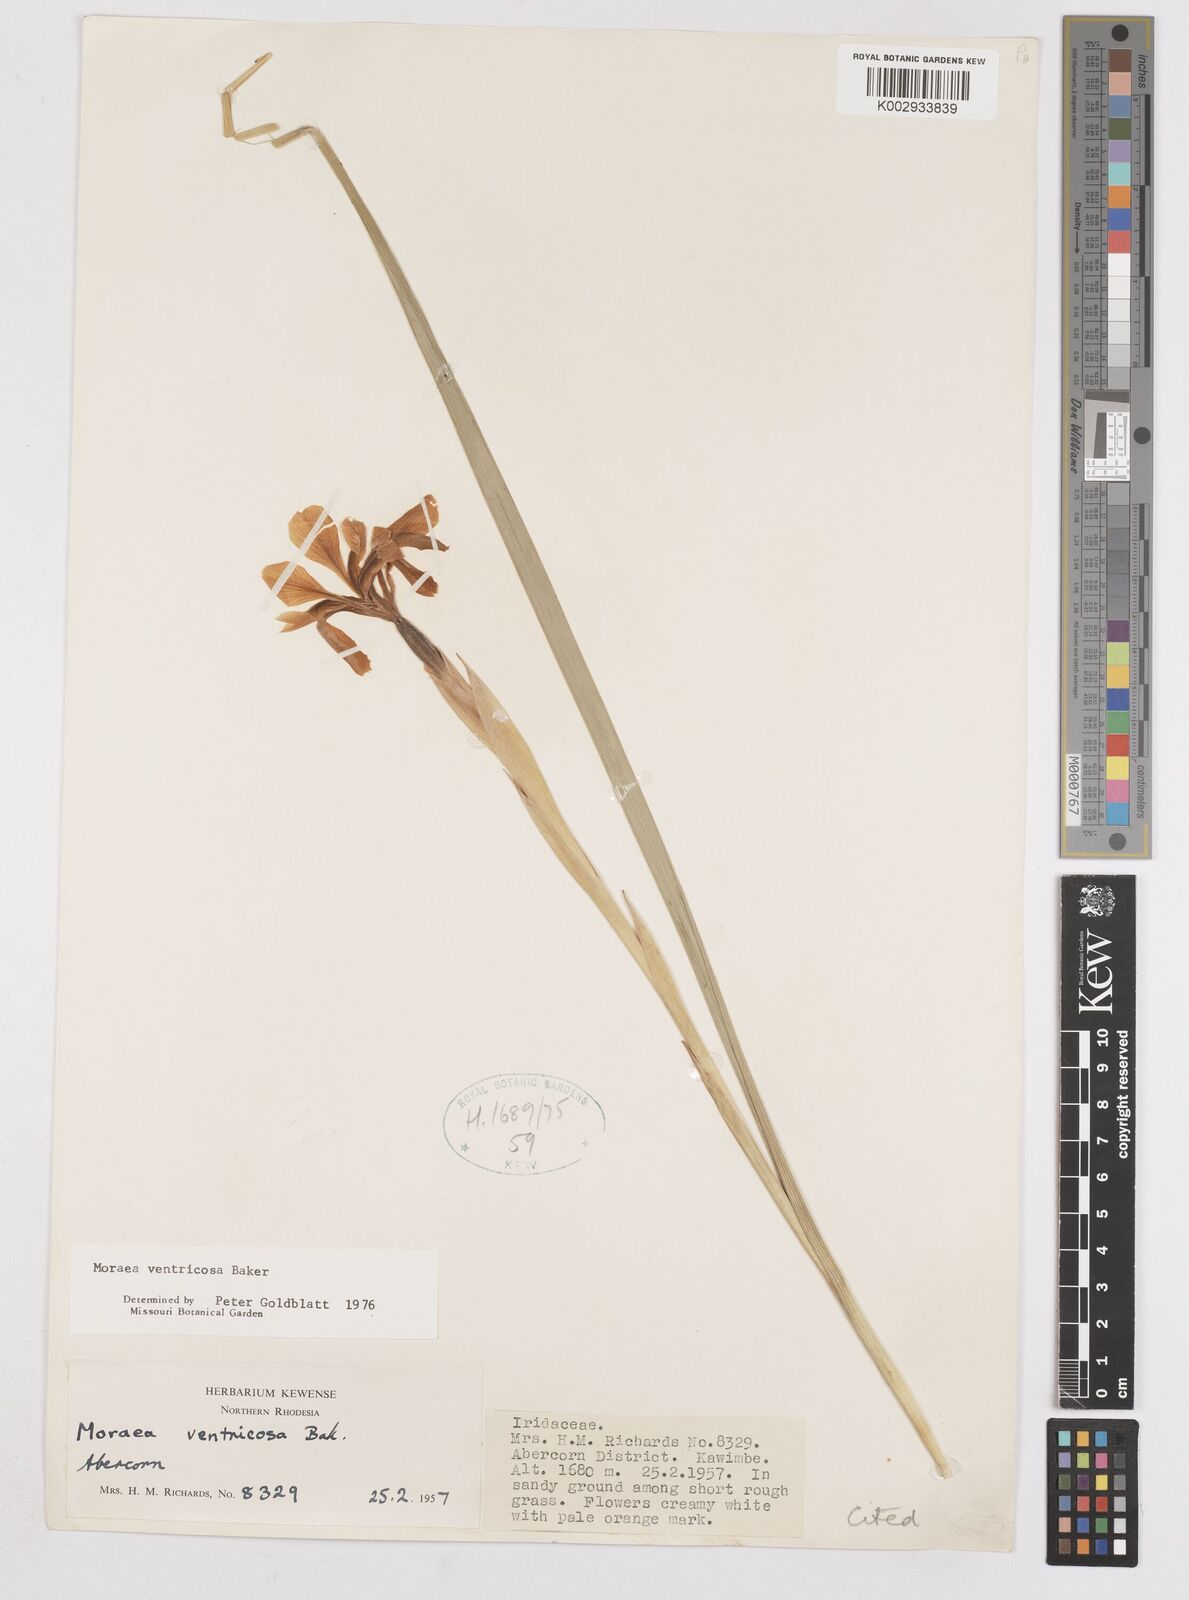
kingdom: Plantae
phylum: Tracheophyta
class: Liliopsida
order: Asparagales
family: Iridaceae
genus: Moraea
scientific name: Moraea ventricosa
